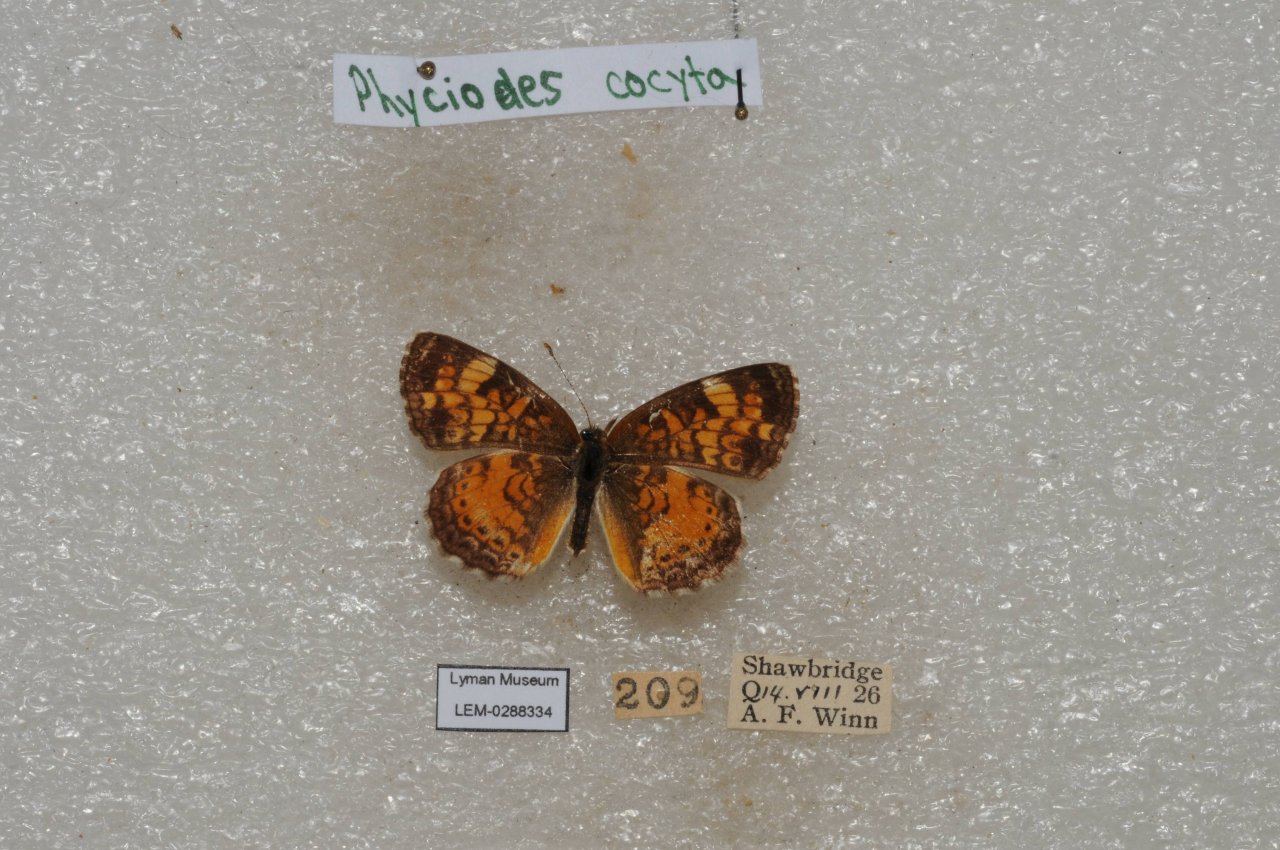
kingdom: Animalia
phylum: Arthropoda
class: Insecta
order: Lepidoptera
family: Nymphalidae
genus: Phyciodes
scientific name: Phyciodes tharos
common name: Northern Crescent
